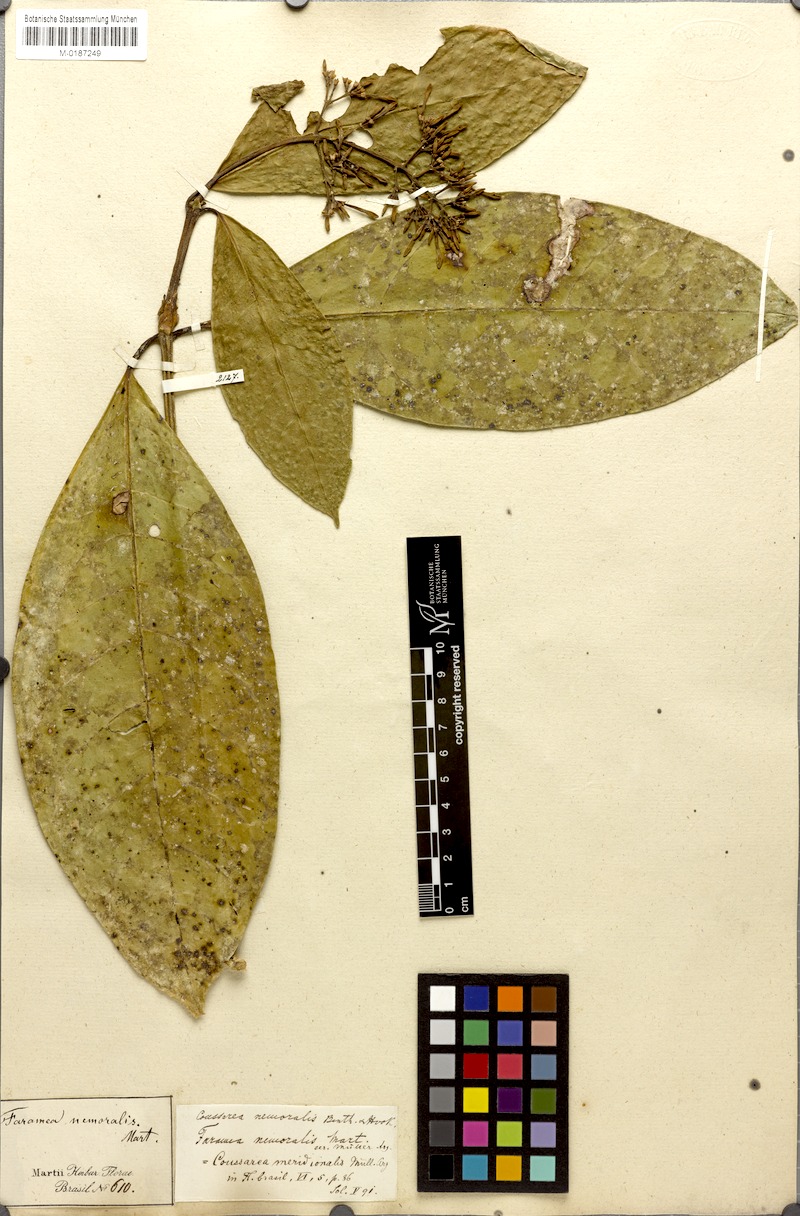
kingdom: Plantae
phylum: Tracheophyta
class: Magnoliopsida
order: Gentianales
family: Rubiaceae
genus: Coussarea
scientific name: Coussarea meridionalis
